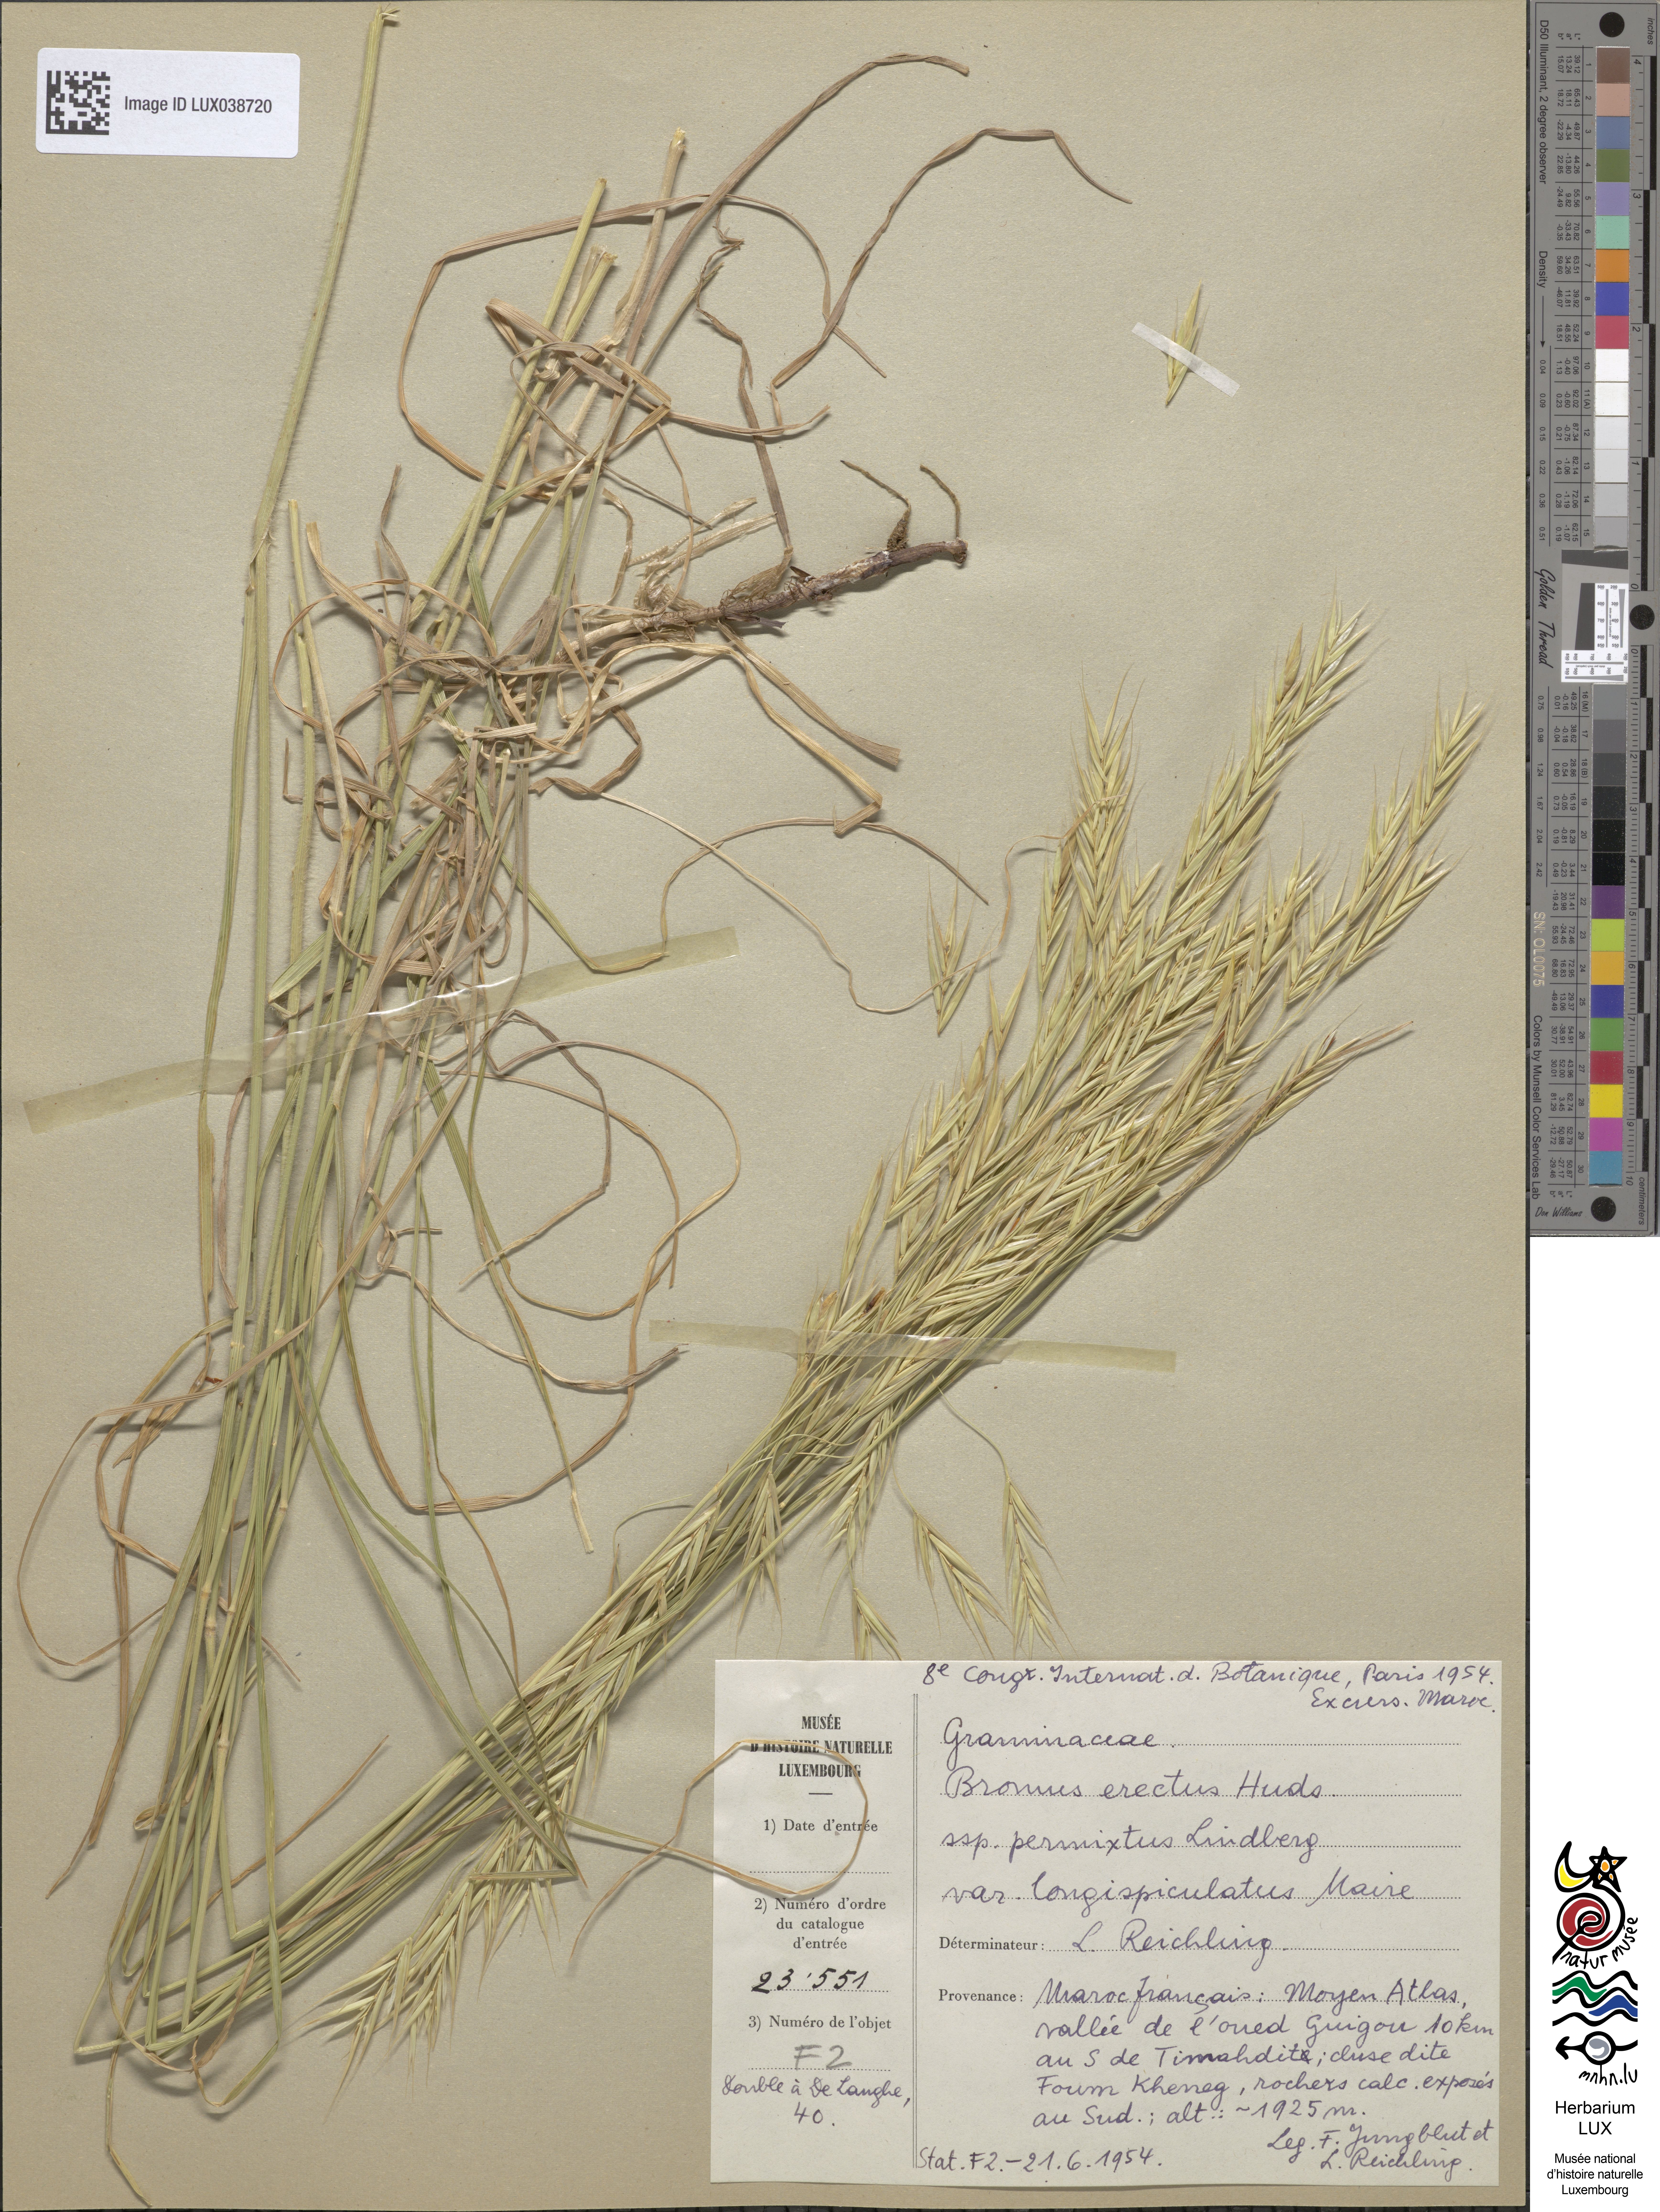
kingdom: Plantae
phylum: Tracheophyta
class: Liliopsida
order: Poales
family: Poaceae
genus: Bromus
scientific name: Bromus erectus
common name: Erect brome
